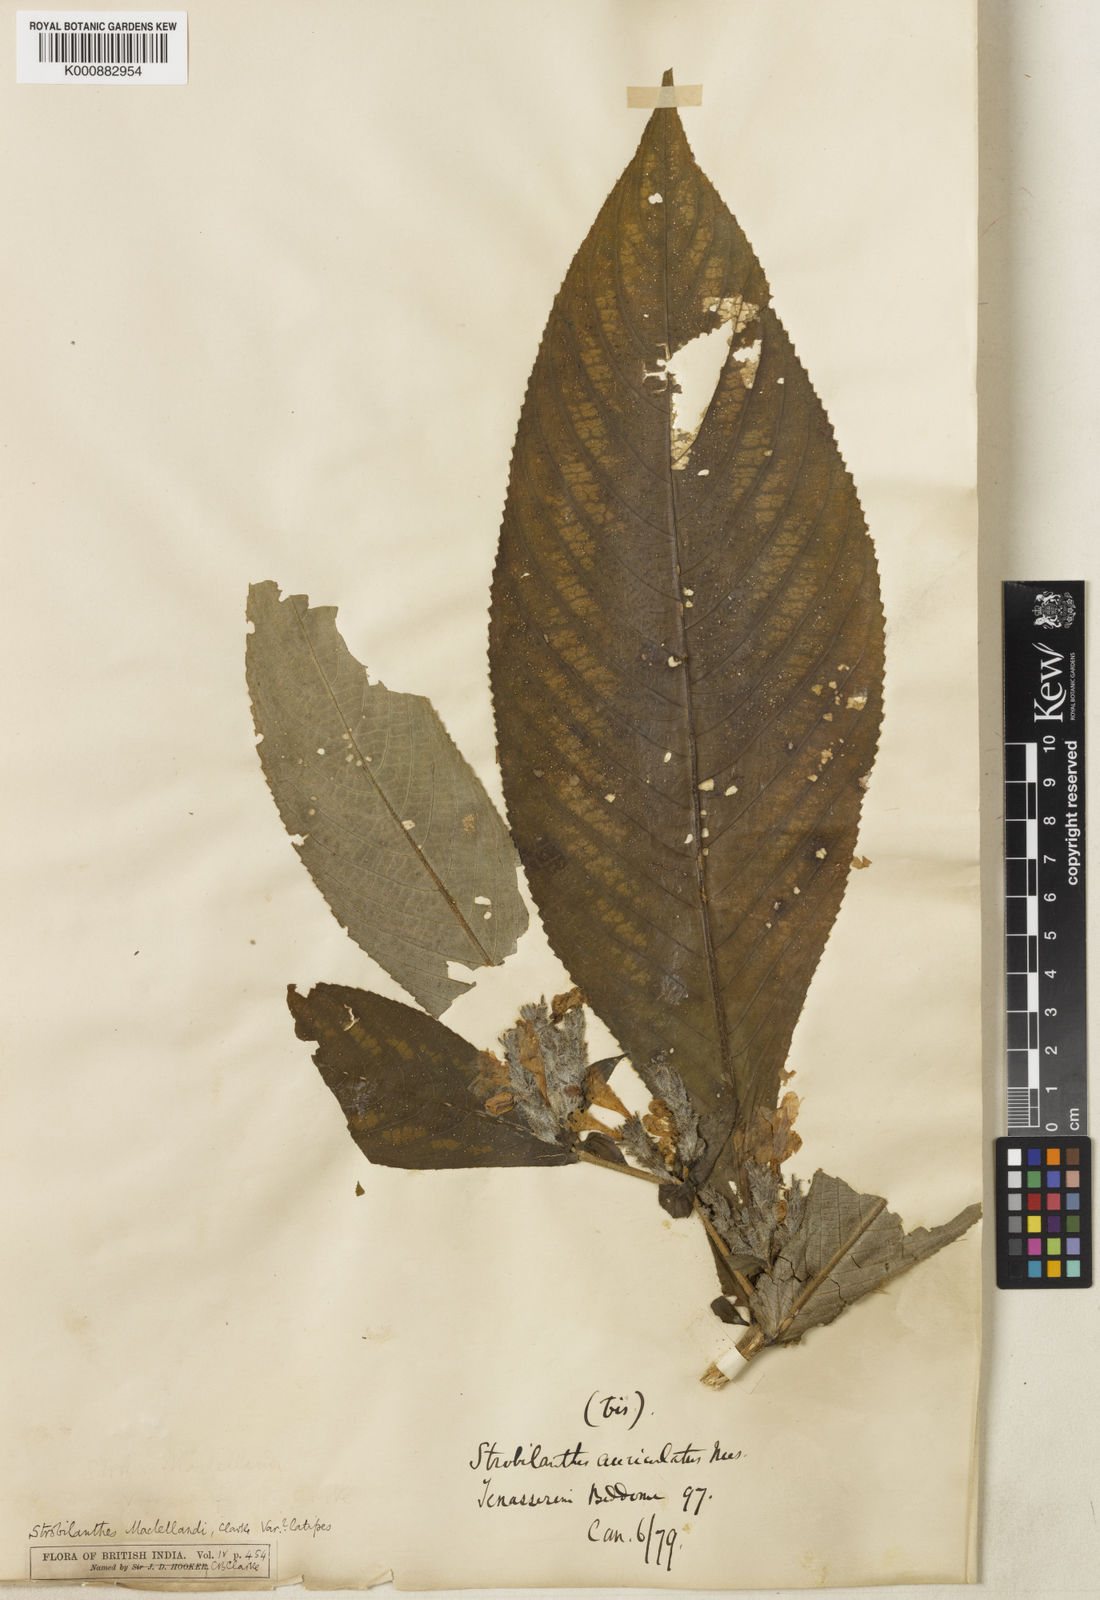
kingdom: Plantae
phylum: Tracheophyta
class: Magnoliopsida
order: Lamiales
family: Acanthaceae
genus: Strobilanthes
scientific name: Strobilanthes auriculata
